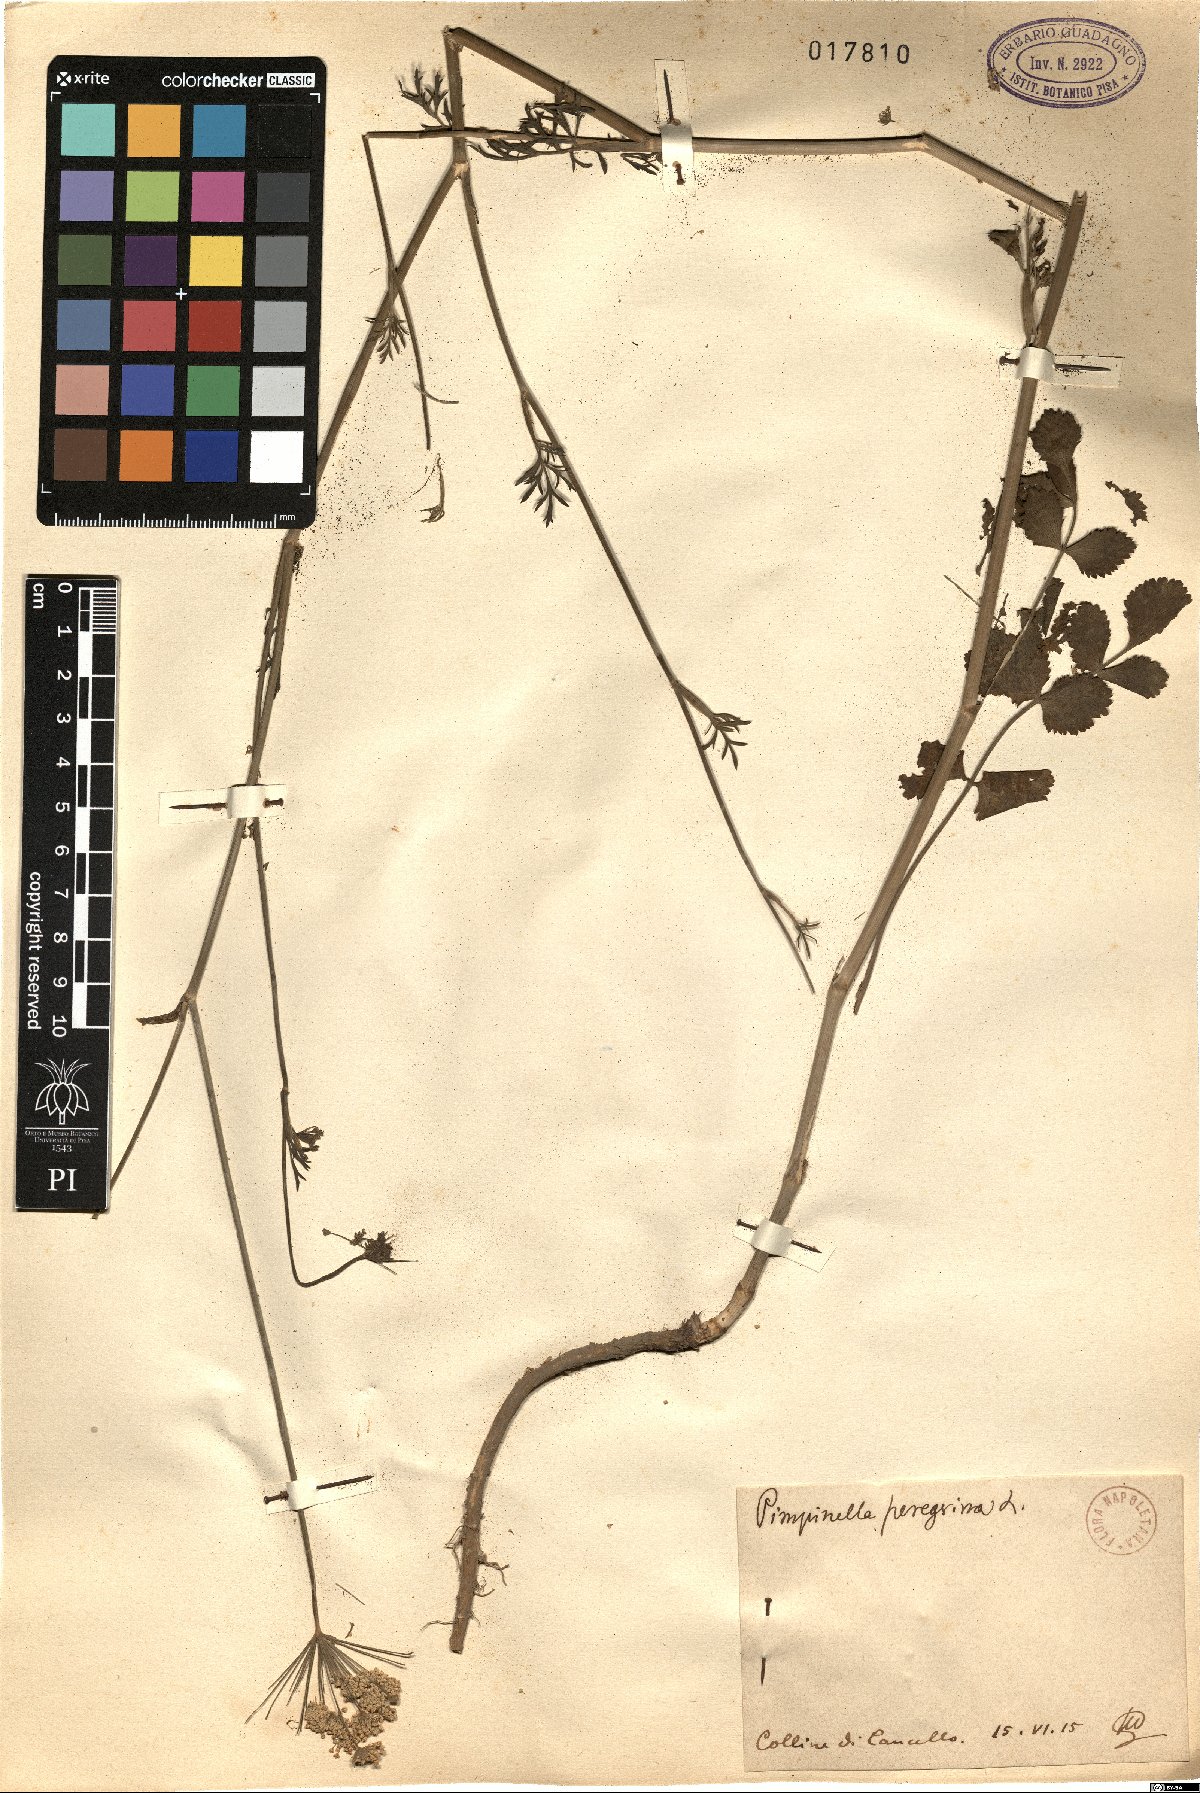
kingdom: Plantae
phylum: Tracheophyta
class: Magnoliopsida
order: Apiales
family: Apiaceae
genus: Pimpinella
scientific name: Pimpinella peregrina
